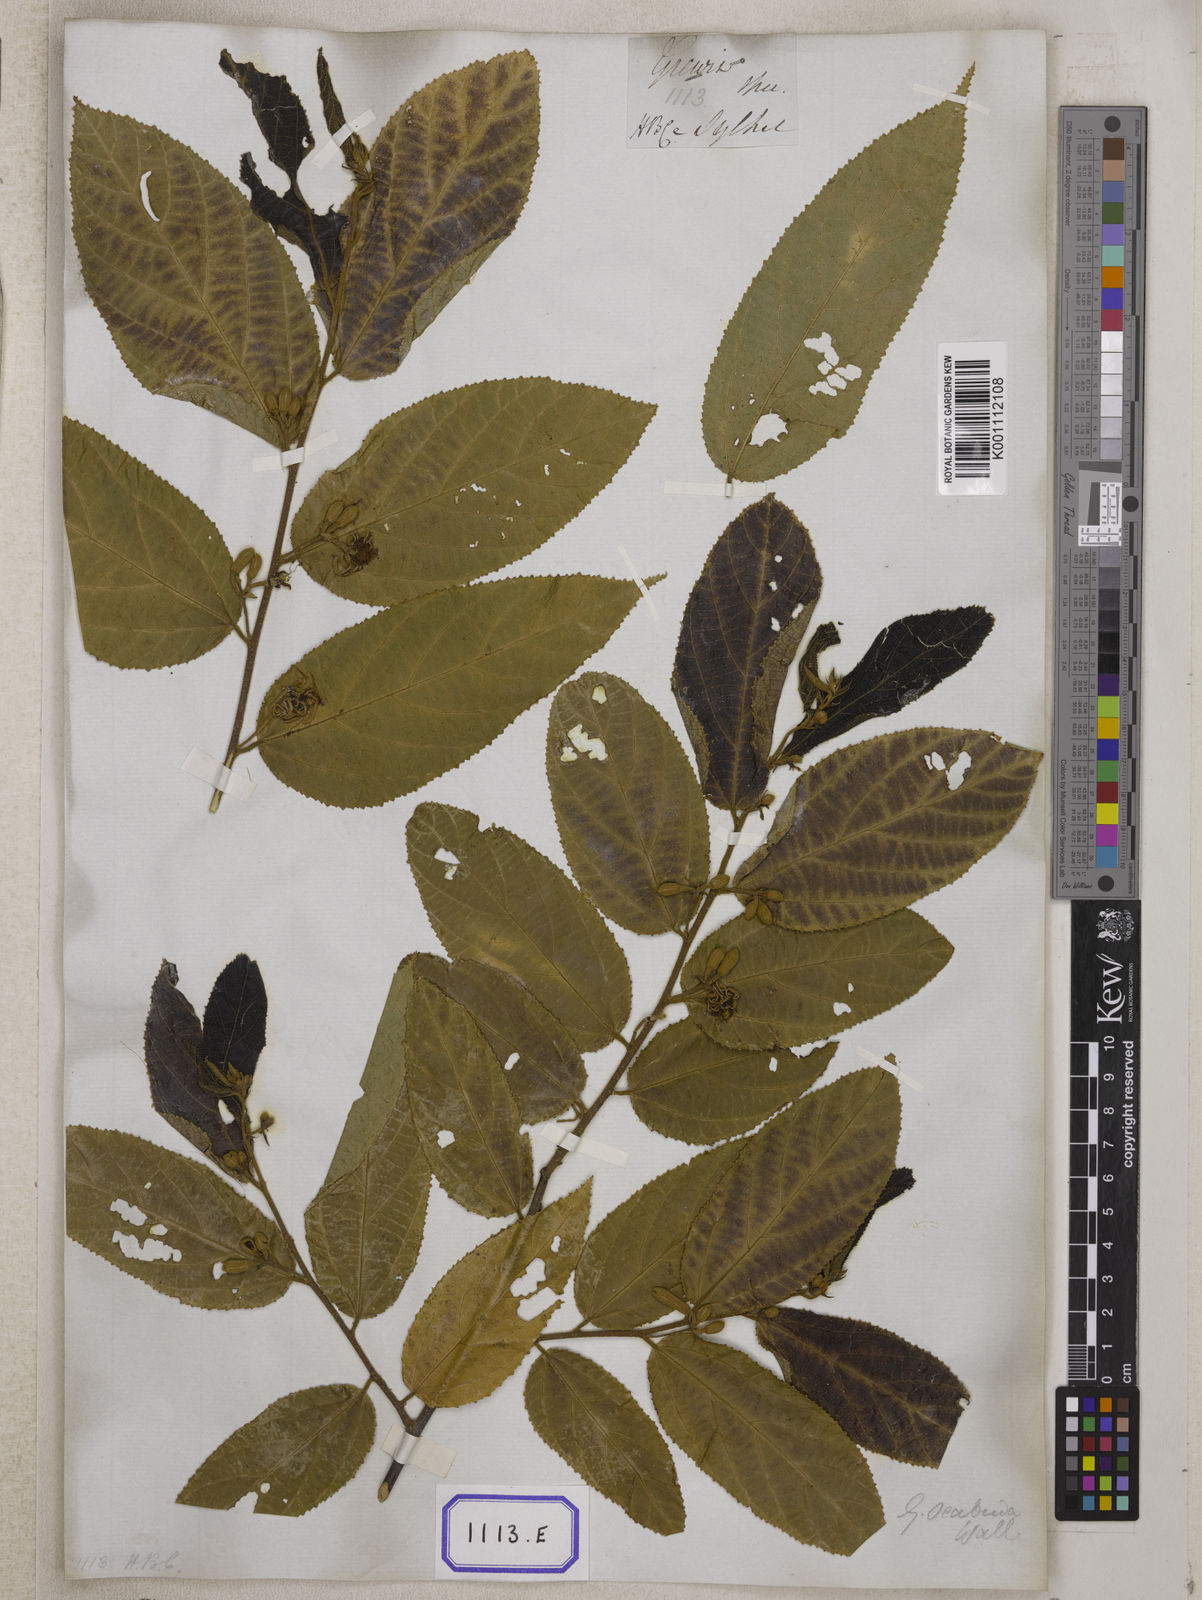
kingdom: Plantae
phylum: Tracheophyta
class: Magnoliopsida
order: Malvales
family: Malvaceae
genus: Grewia
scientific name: Grewia
